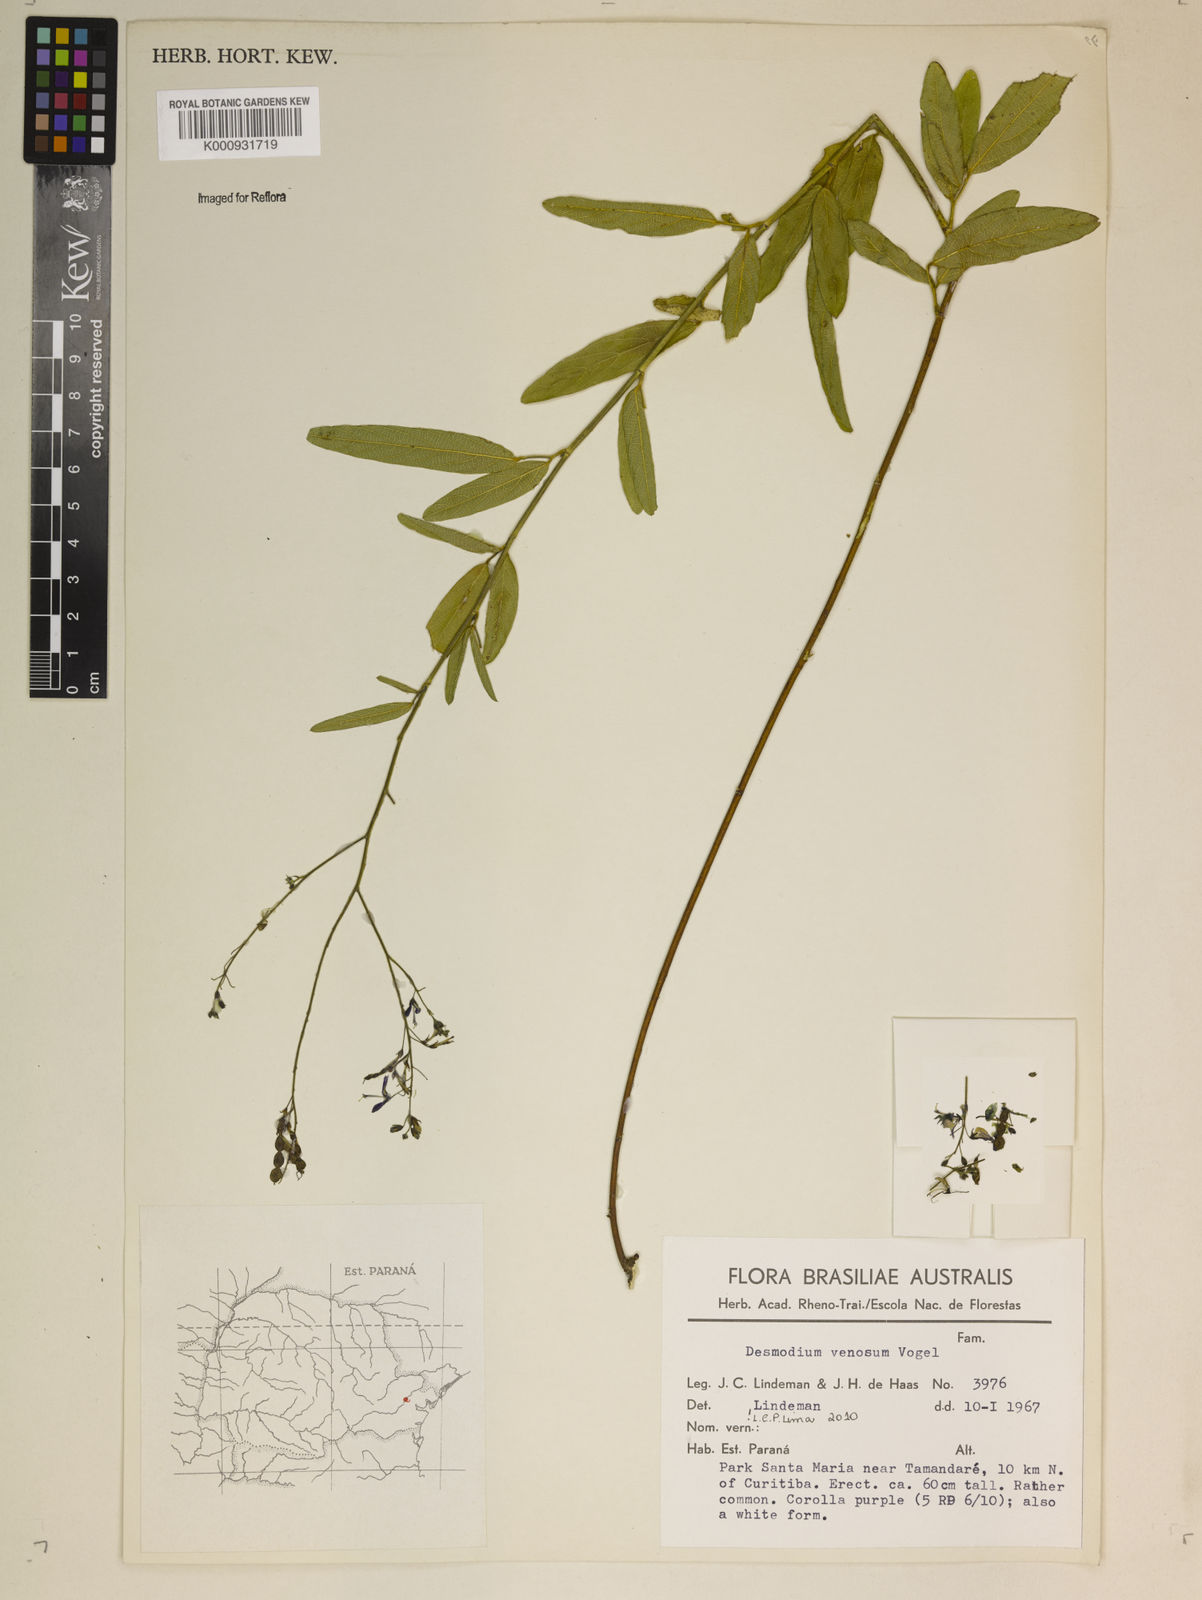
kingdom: Plantae
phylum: Tracheophyta
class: Magnoliopsida
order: Fabales
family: Fabaceae
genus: Desmodium
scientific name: Desmodium venosum
